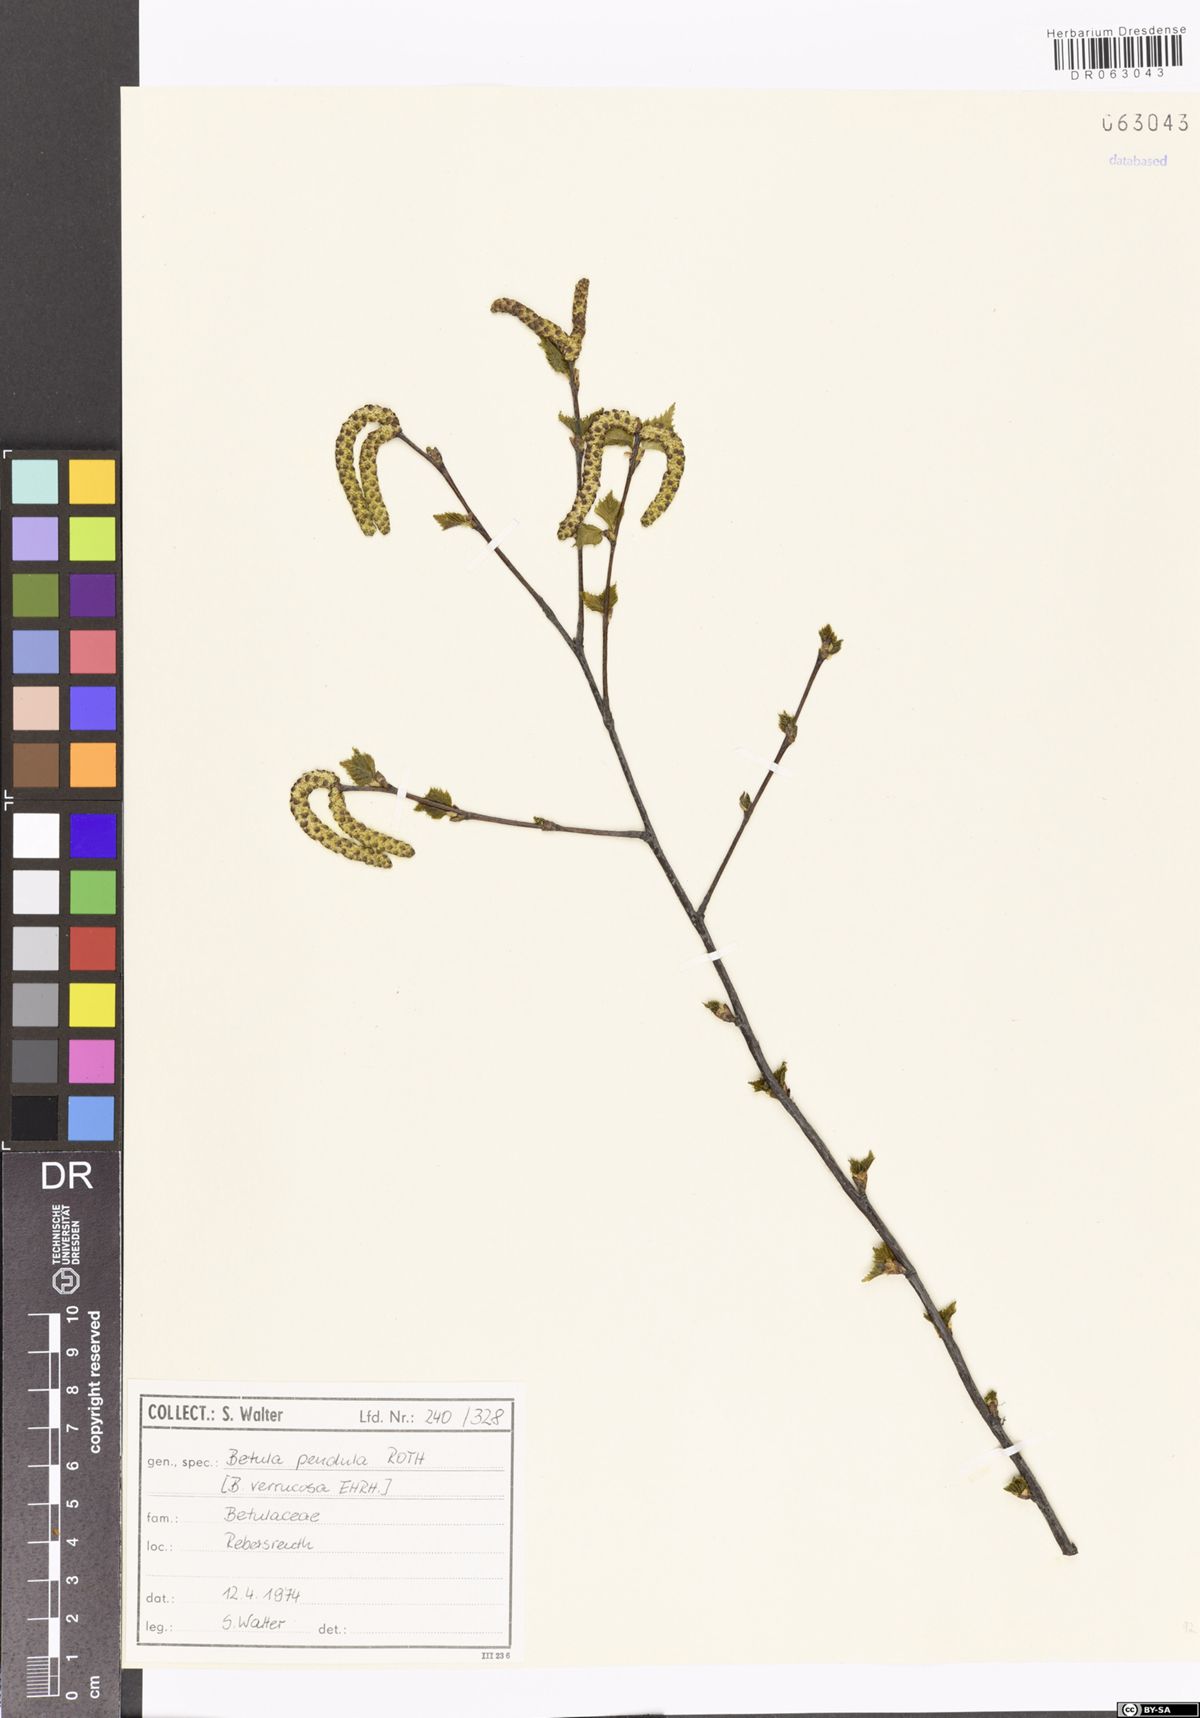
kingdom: Plantae
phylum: Tracheophyta
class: Magnoliopsida
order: Fagales
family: Betulaceae
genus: Betula
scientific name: Betula pendula
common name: Silver birch
